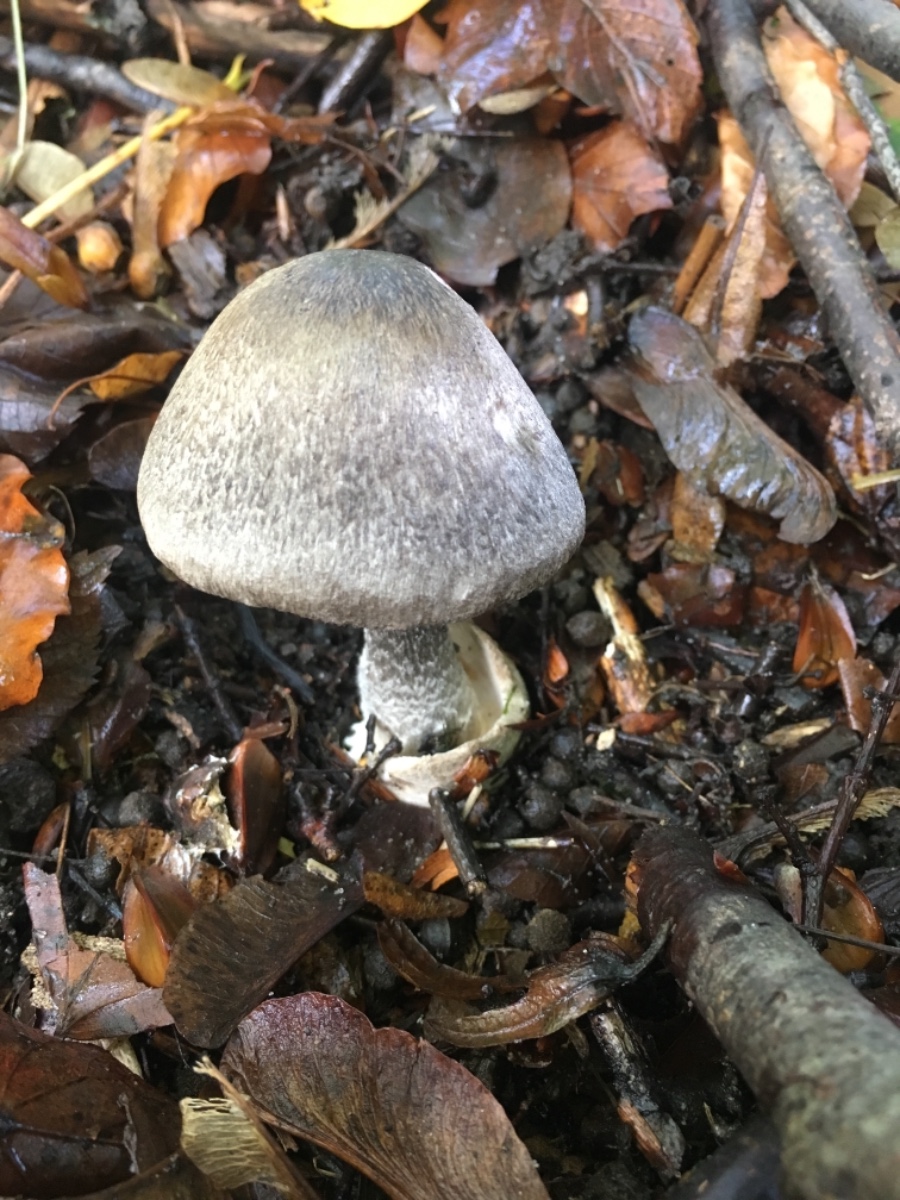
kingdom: Fungi
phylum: Basidiomycota
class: Agaricomycetes
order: Agaricales
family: Pluteaceae
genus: Volvariella
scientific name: Volvariella murinella
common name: musegrå posesvamp
